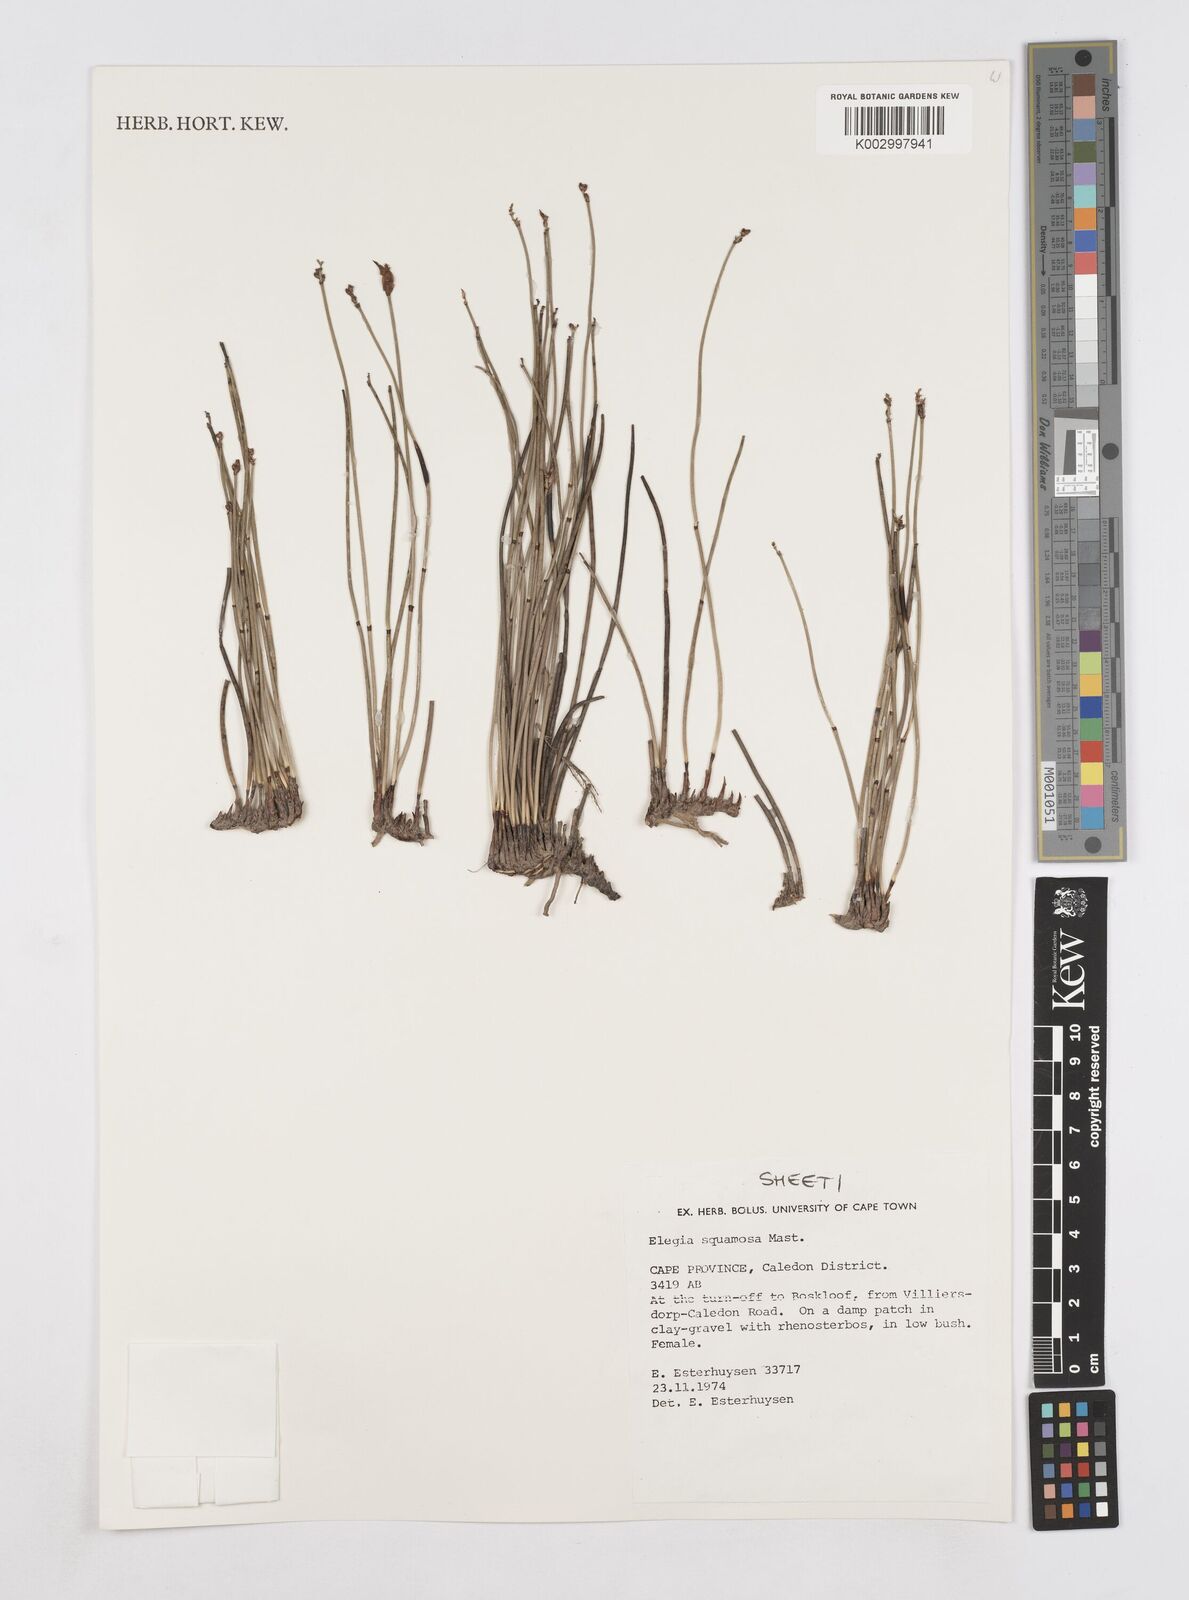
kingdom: Plantae
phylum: Tracheophyta
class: Liliopsida
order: Poales
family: Restionaceae
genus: Elegia
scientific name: Elegia squamosa
